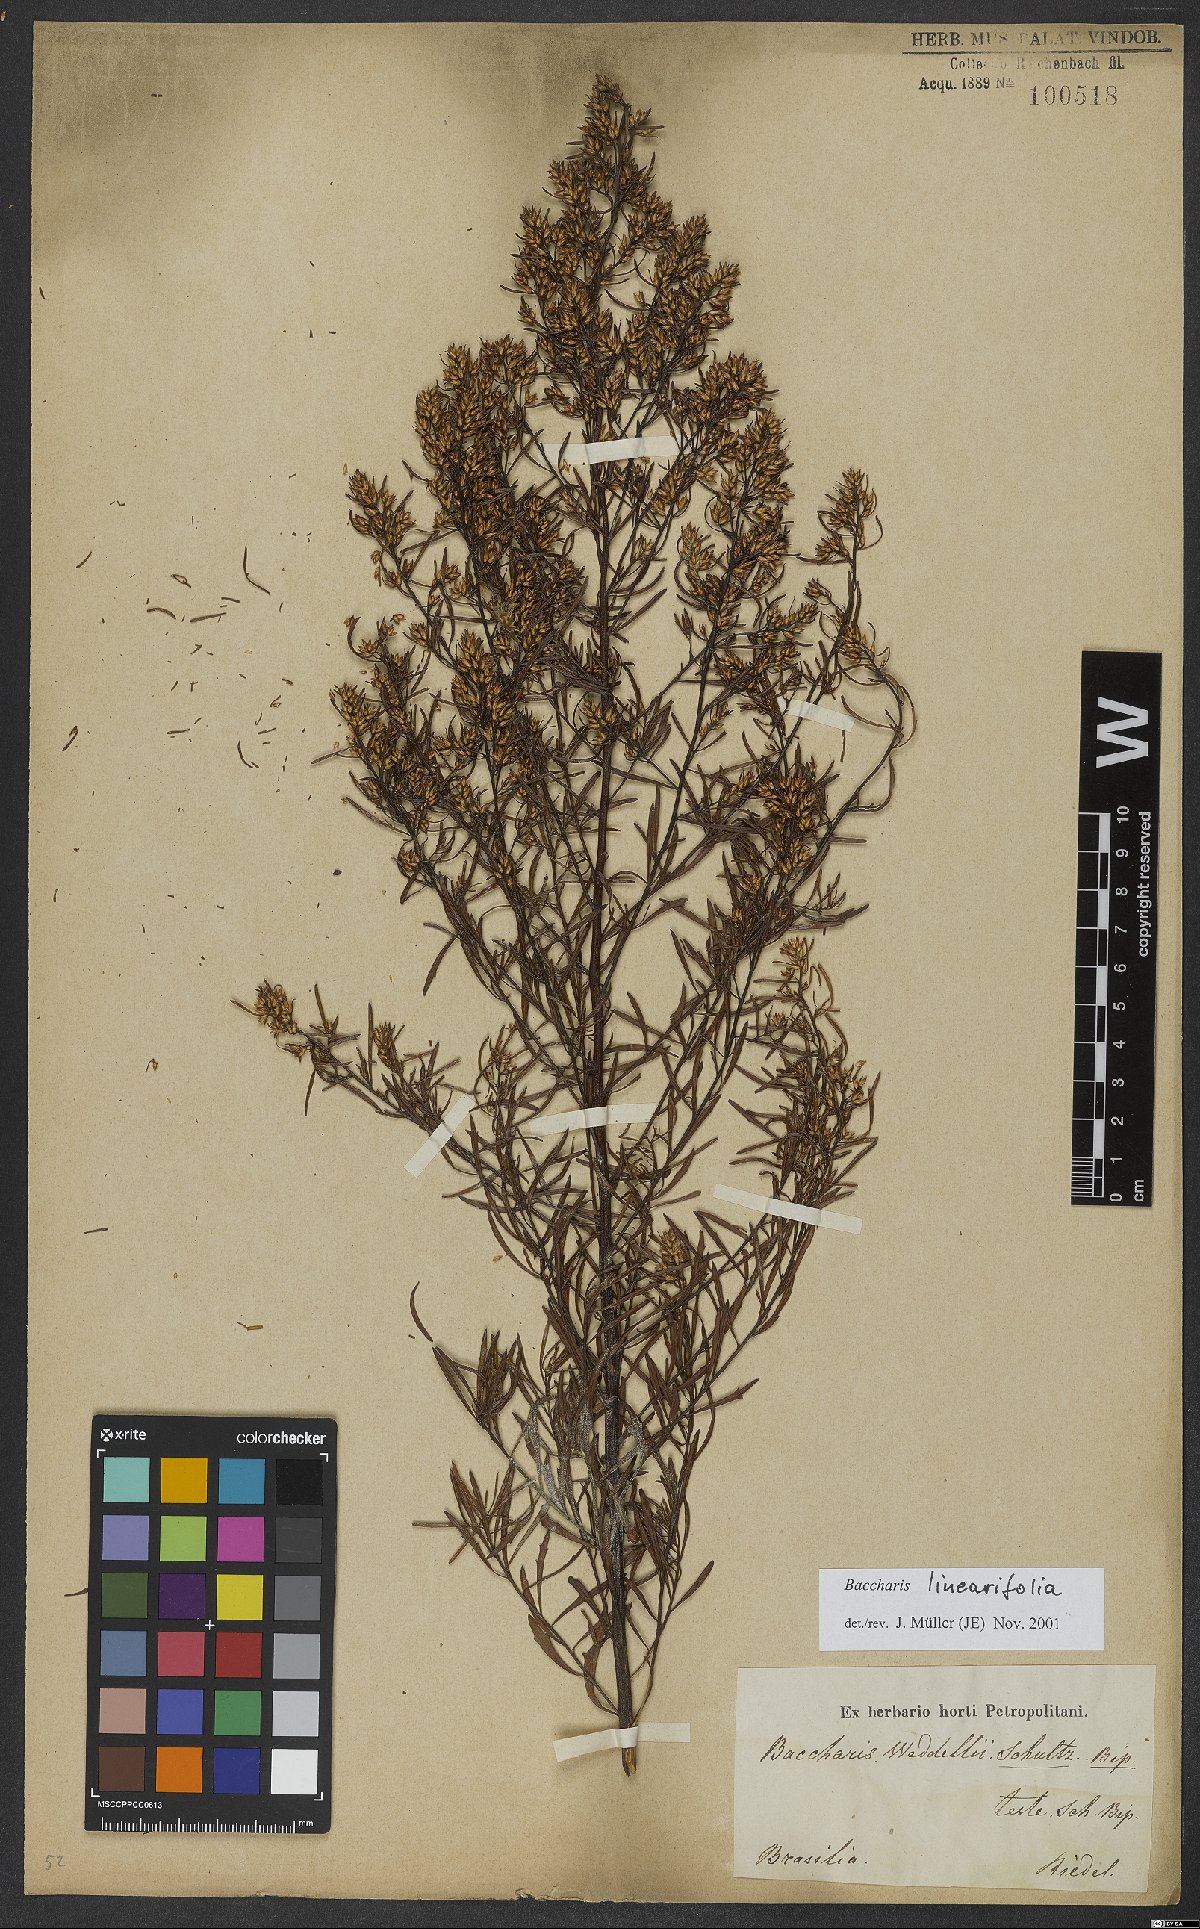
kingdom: Plantae
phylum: Tracheophyta
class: Magnoliopsida
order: Asterales
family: Asteraceae
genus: Baccharis
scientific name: Baccharis linearifolia
